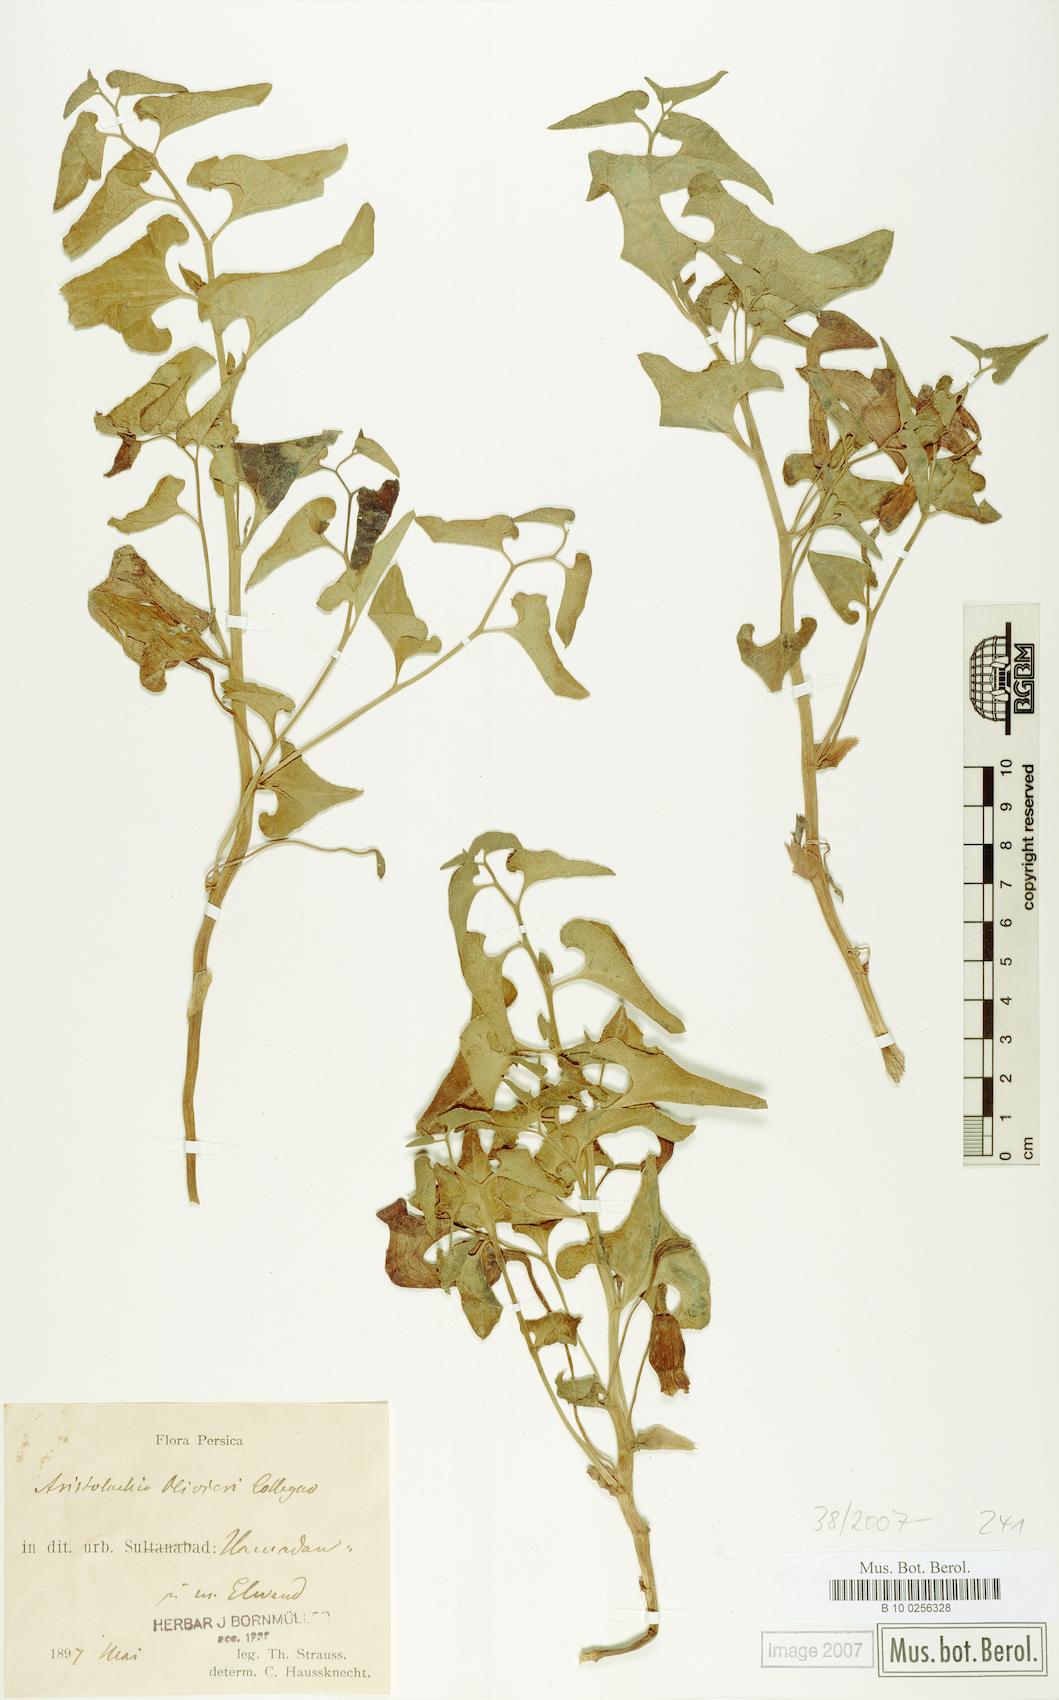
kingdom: Plantae
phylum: Tracheophyta
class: Magnoliopsida
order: Piperales
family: Aristolochiaceae
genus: Aristolochia
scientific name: Aristolochia bottae
